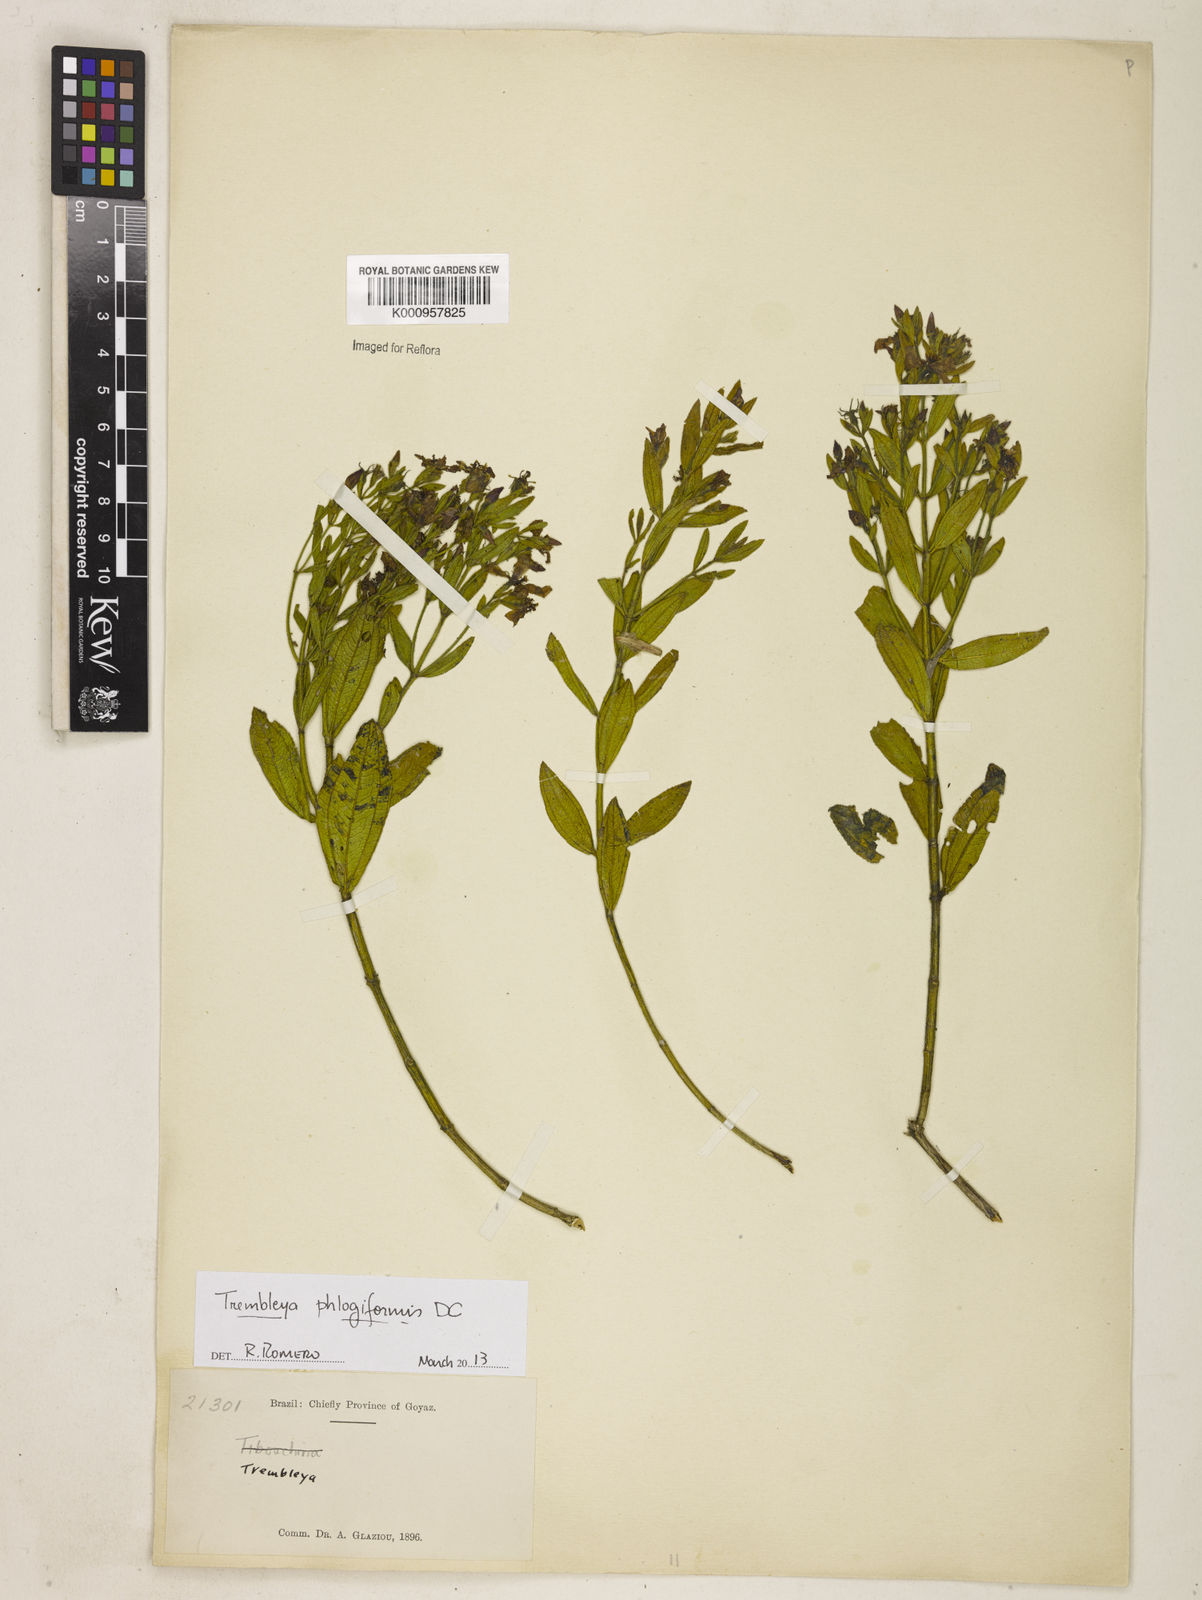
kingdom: Plantae
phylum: Tracheophyta
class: Magnoliopsida
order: Myrtales
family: Melastomataceae
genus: Microlicia
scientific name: Microlicia phlogiformis
